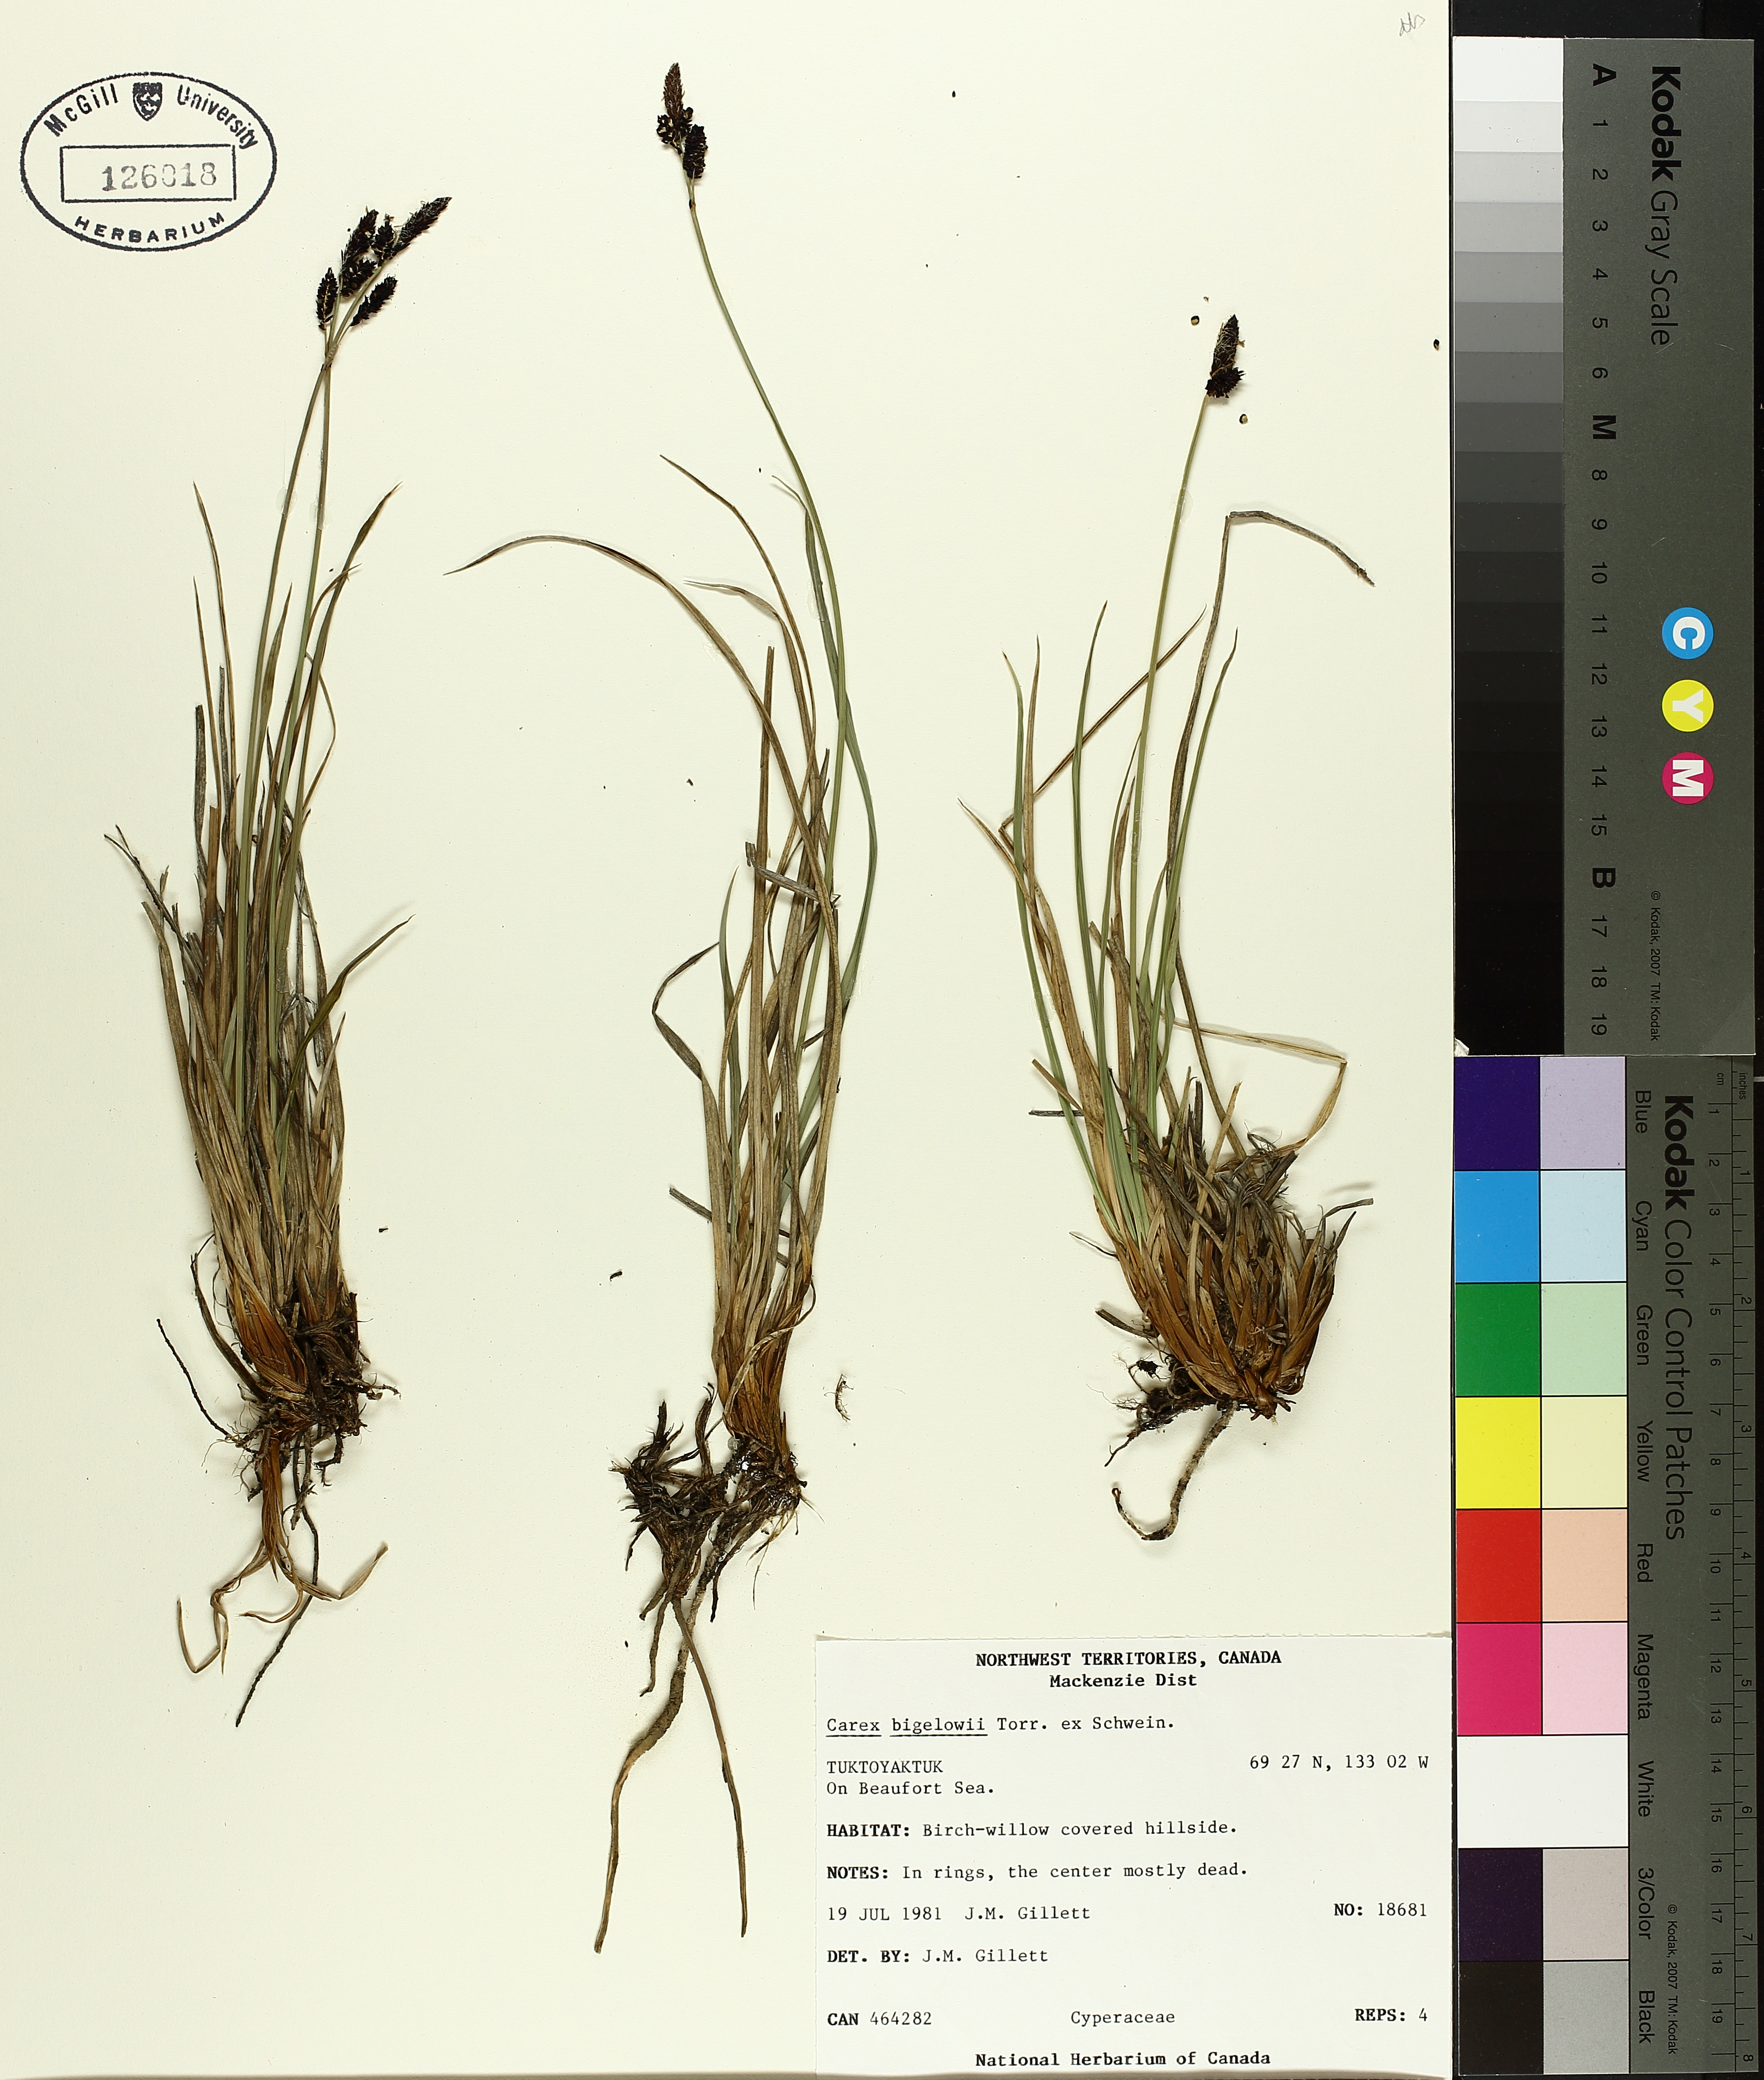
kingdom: Plantae
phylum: Tracheophyta
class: Liliopsida
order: Poales
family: Cyperaceae
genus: Carex
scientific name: Carex bigelowii
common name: Stiff sedge
